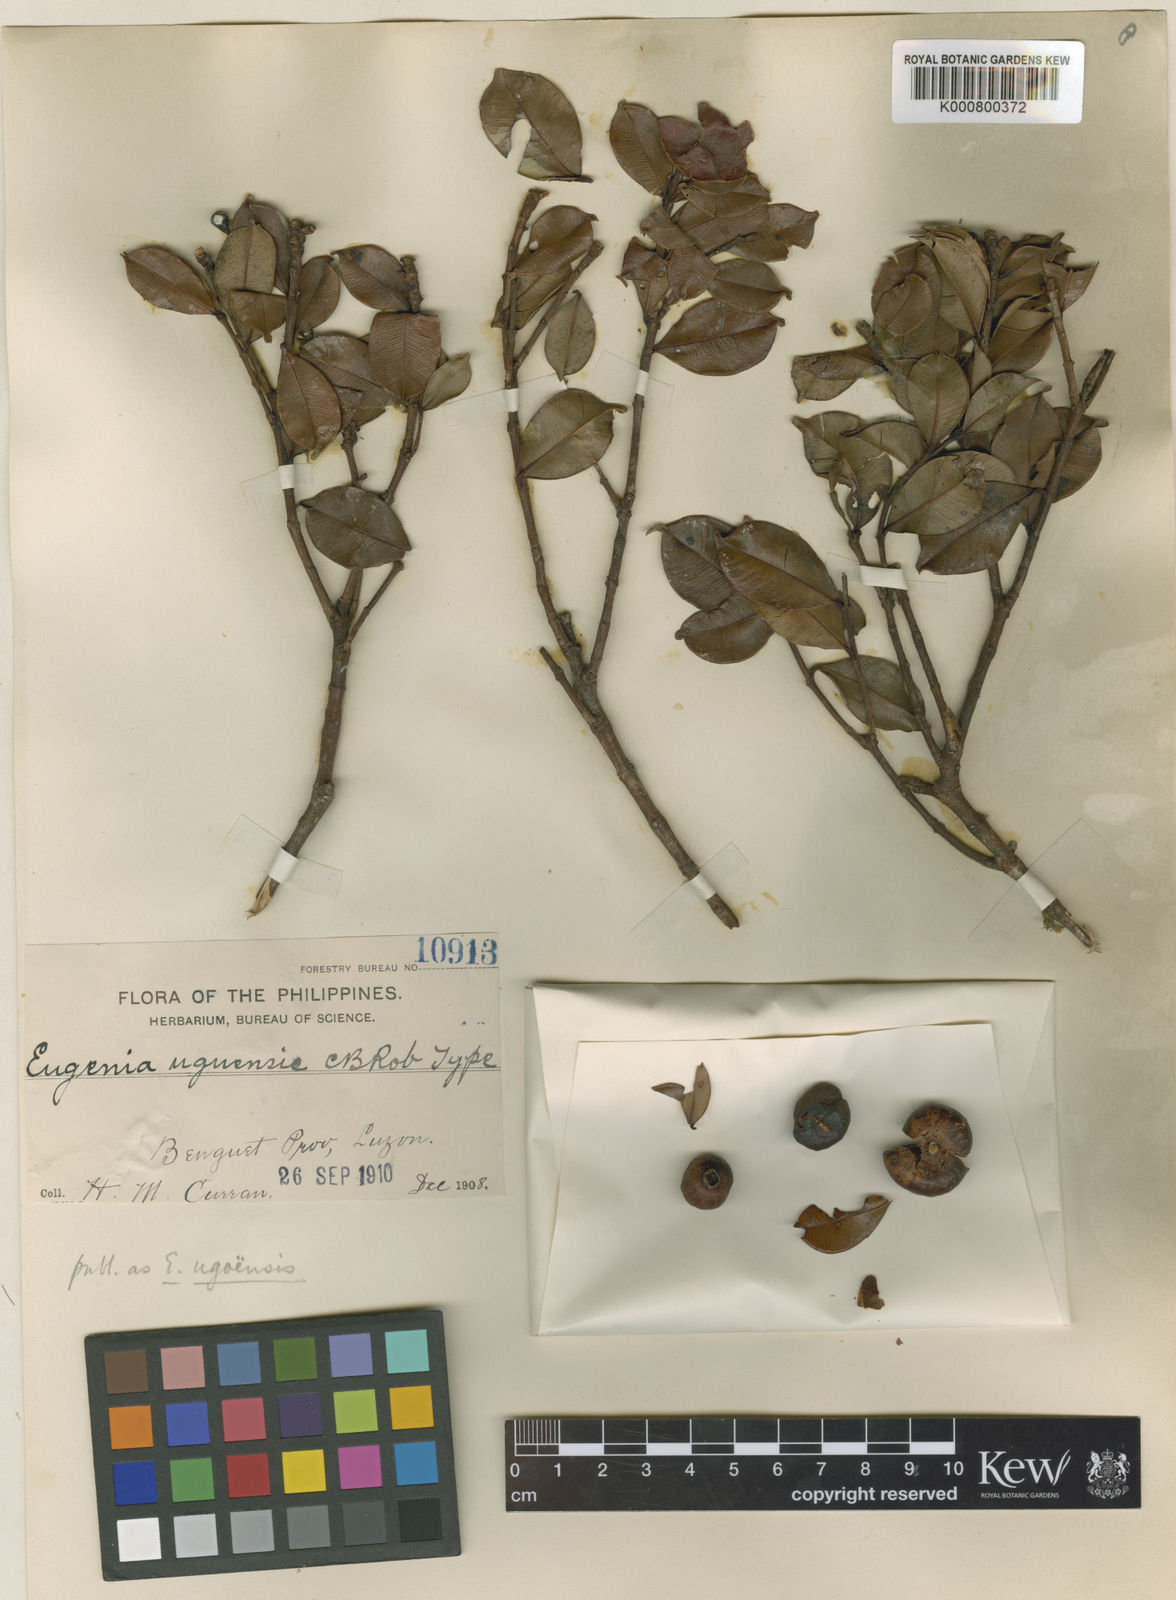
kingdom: Plantae
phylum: Tracheophyta
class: Magnoliopsida
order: Myrtales
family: Myrtaceae
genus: Syzygium
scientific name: Syzygium myrtillus
